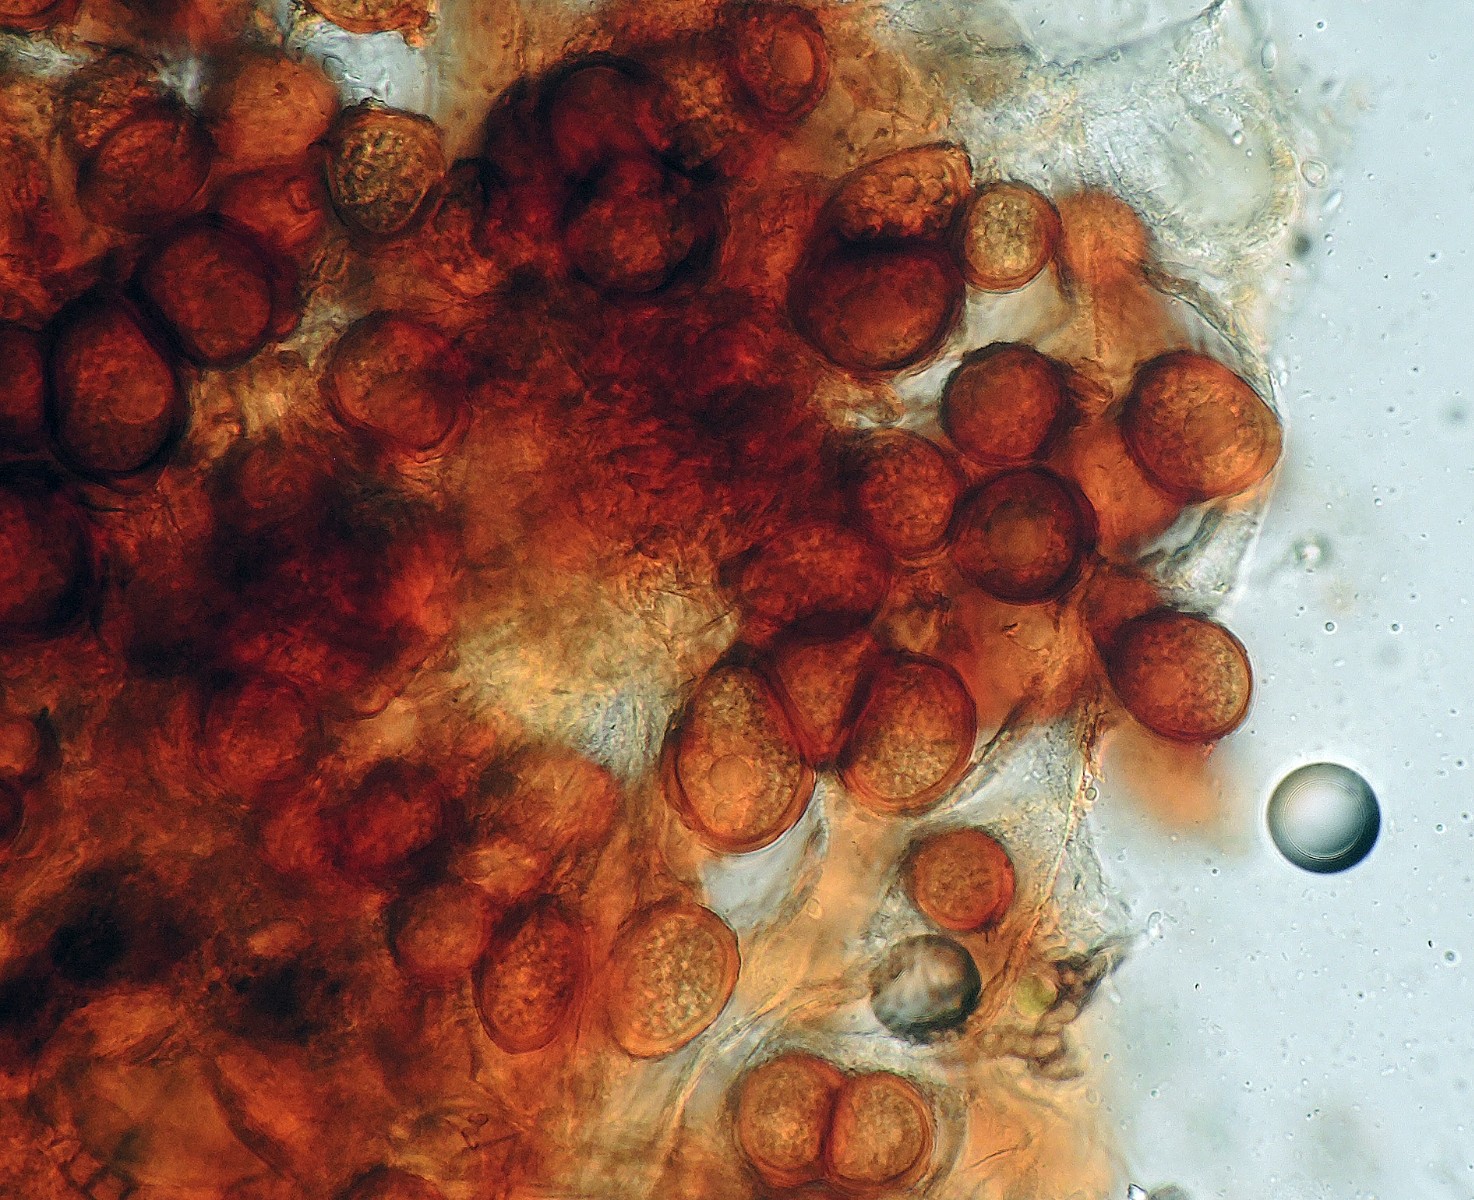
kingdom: Fungi
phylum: Basidiomycota
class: Wallemiomycetes
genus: Bartheletia
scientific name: Bartheletia paradoxa
